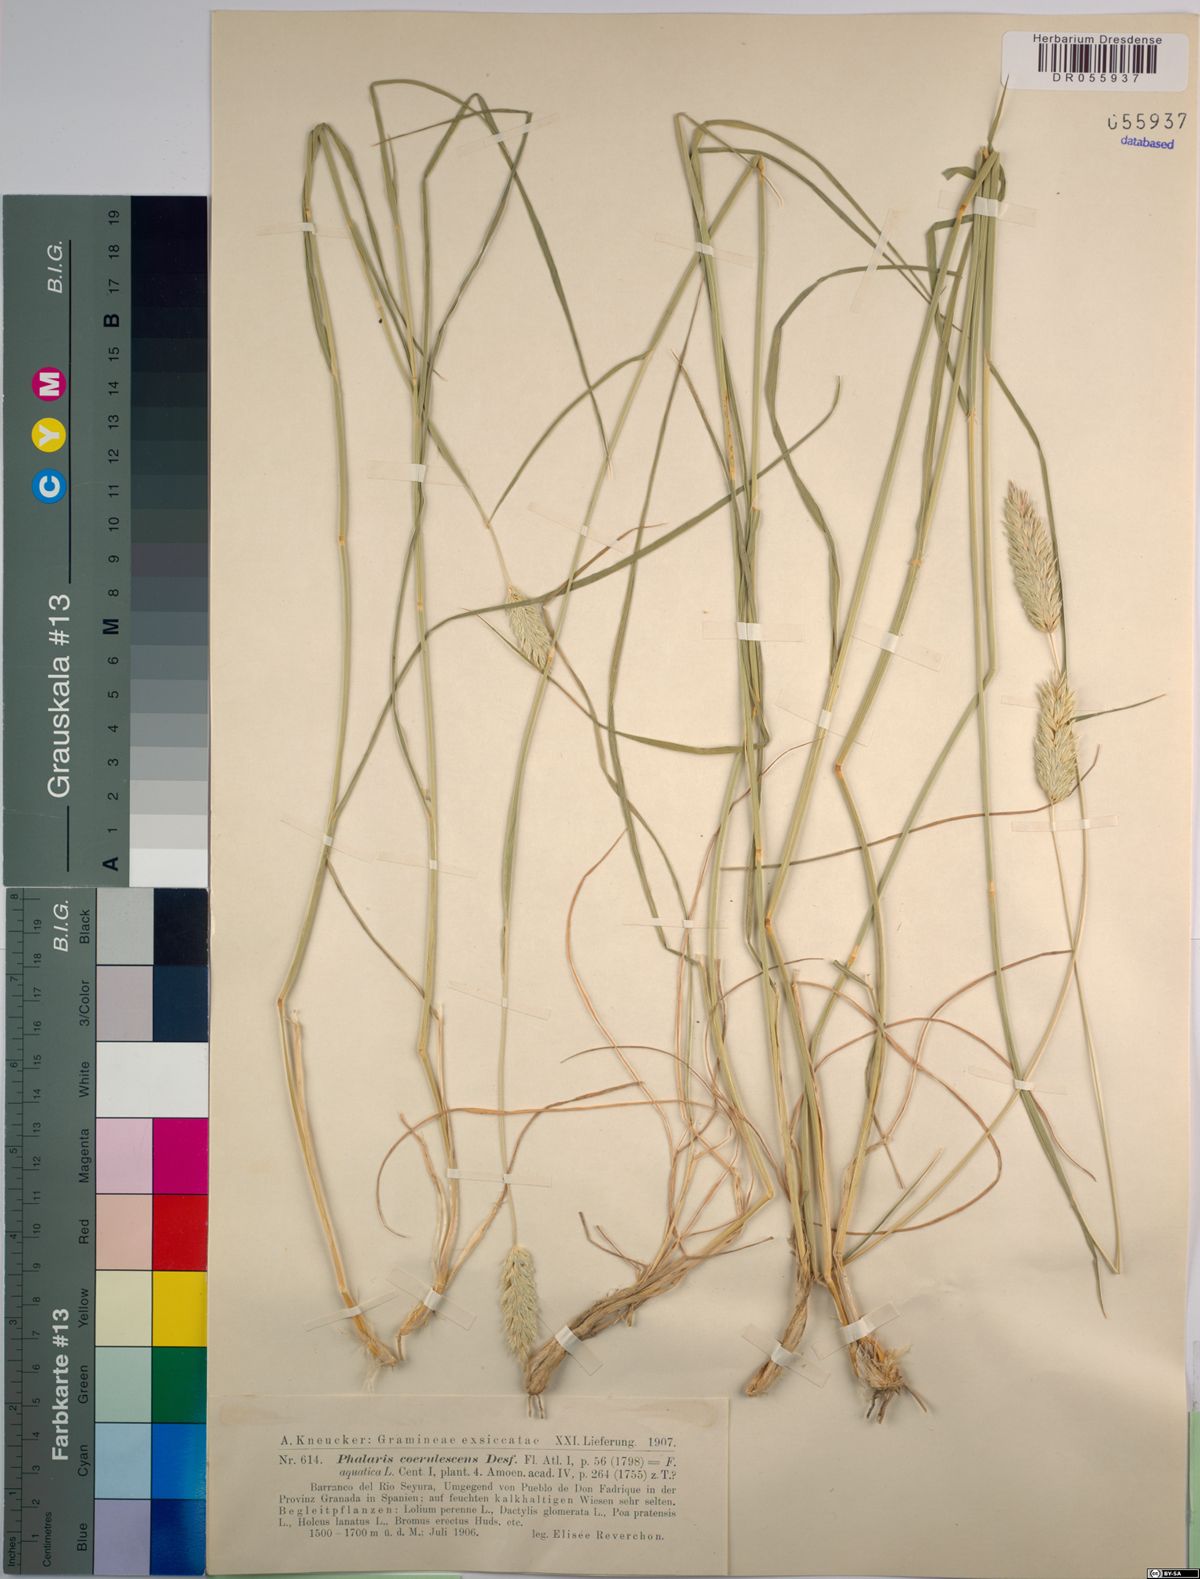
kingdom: Plantae
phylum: Tracheophyta
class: Liliopsida
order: Poales
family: Poaceae
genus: Phalaris
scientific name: Phalaris coerulescens
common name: Sunolgrass
